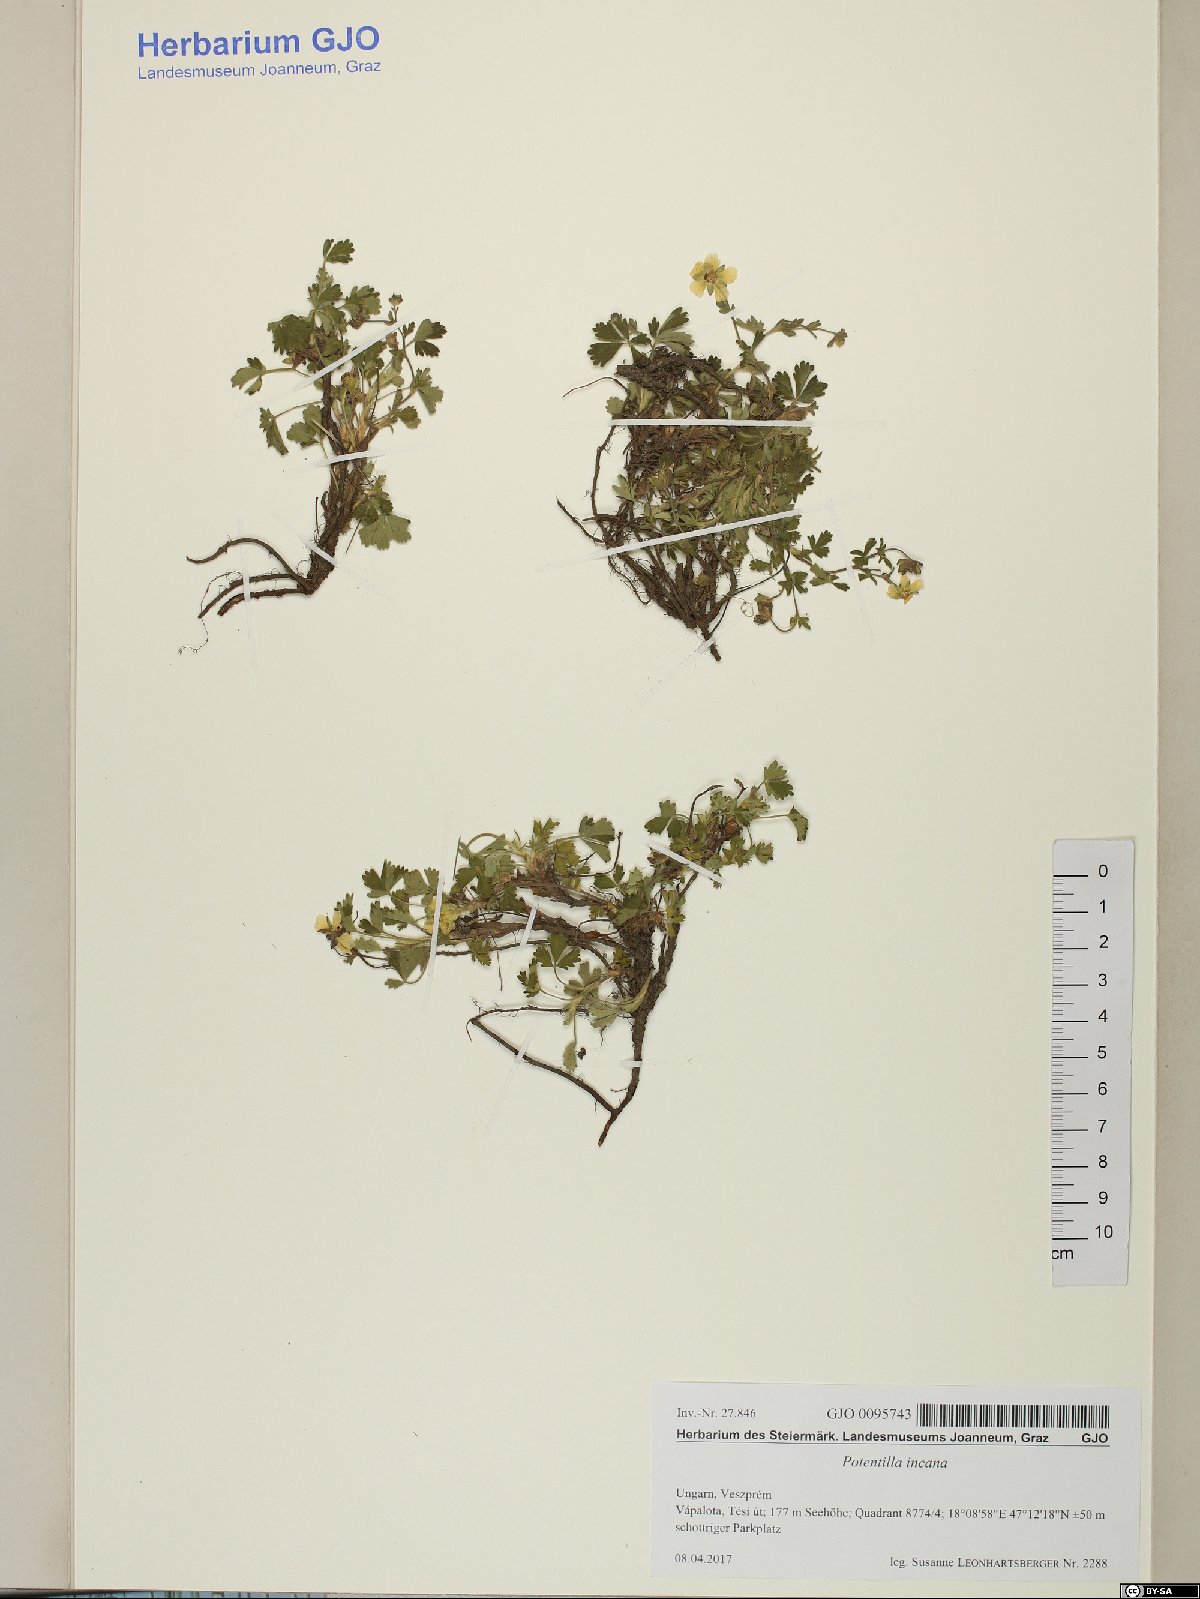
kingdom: Plantae
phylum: Tracheophyta
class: Magnoliopsida
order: Rosales
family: Rosaceae
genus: Potentilla
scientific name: Potentilla cinerea
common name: Ashy cinquefoil
